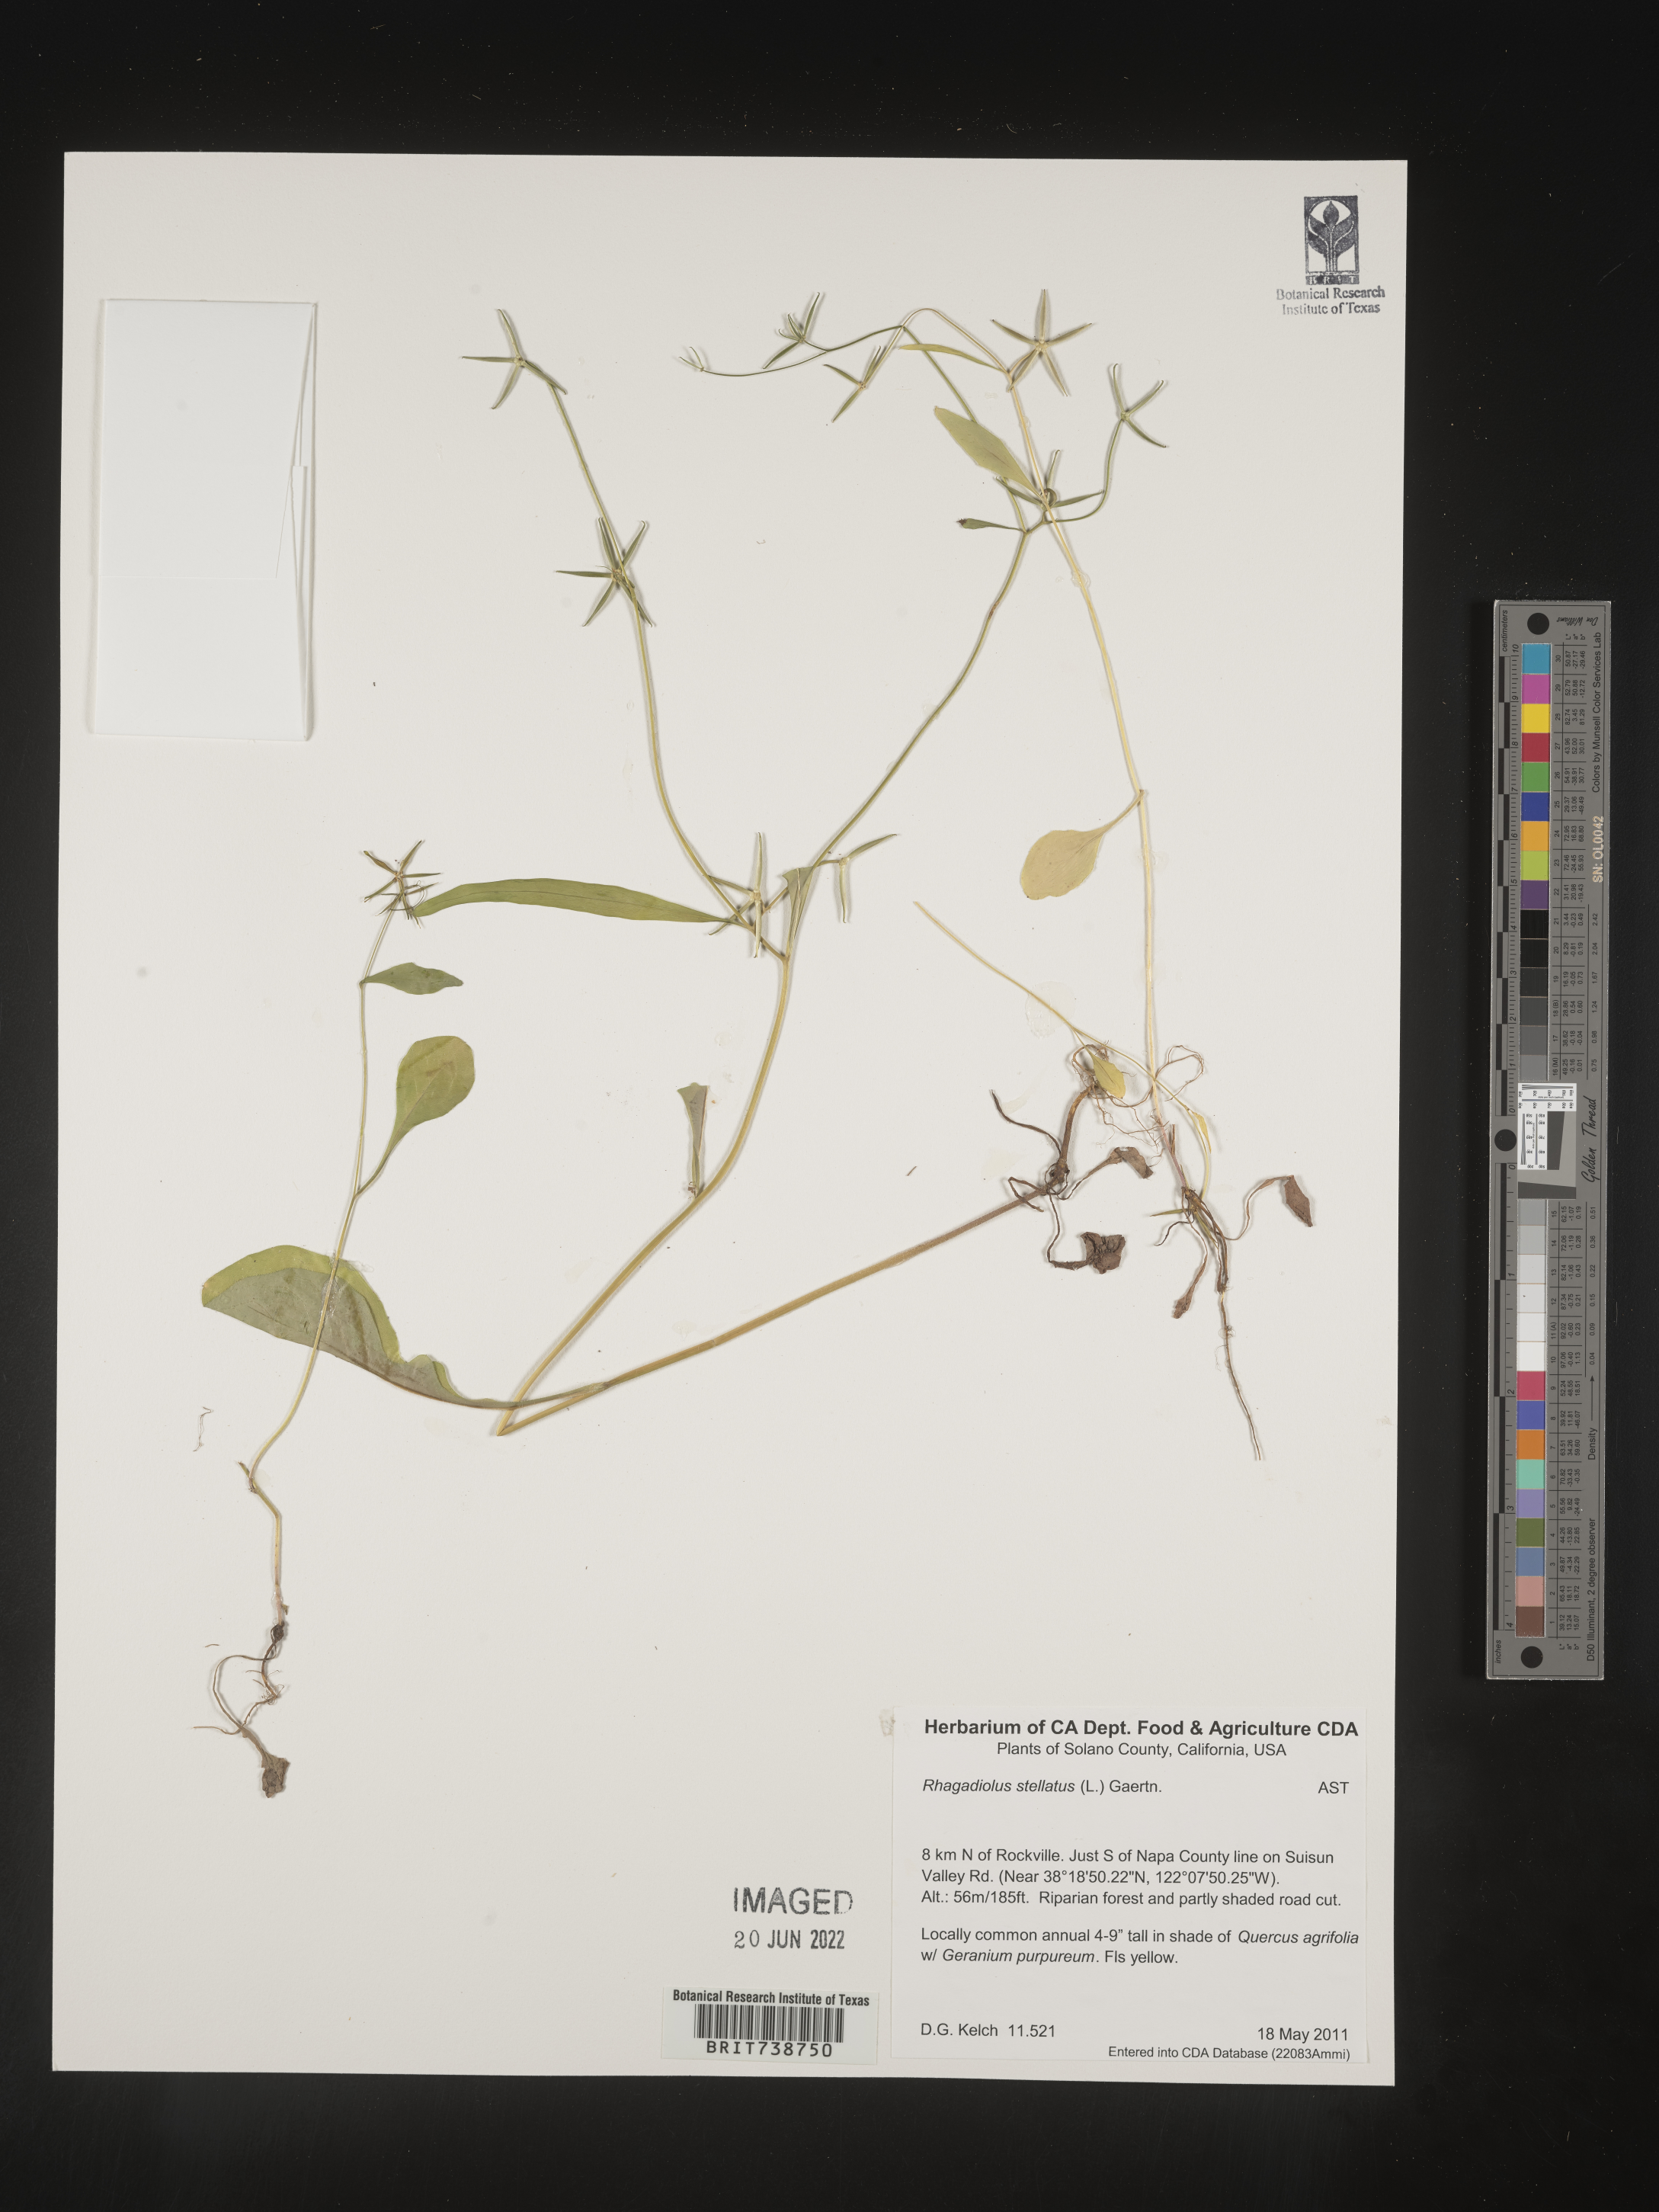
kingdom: Plantae
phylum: Tracheophyta
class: Magnoliopsida
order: Asterales
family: Asteraceae
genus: Rhagadiolus
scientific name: Rhagadiolus
